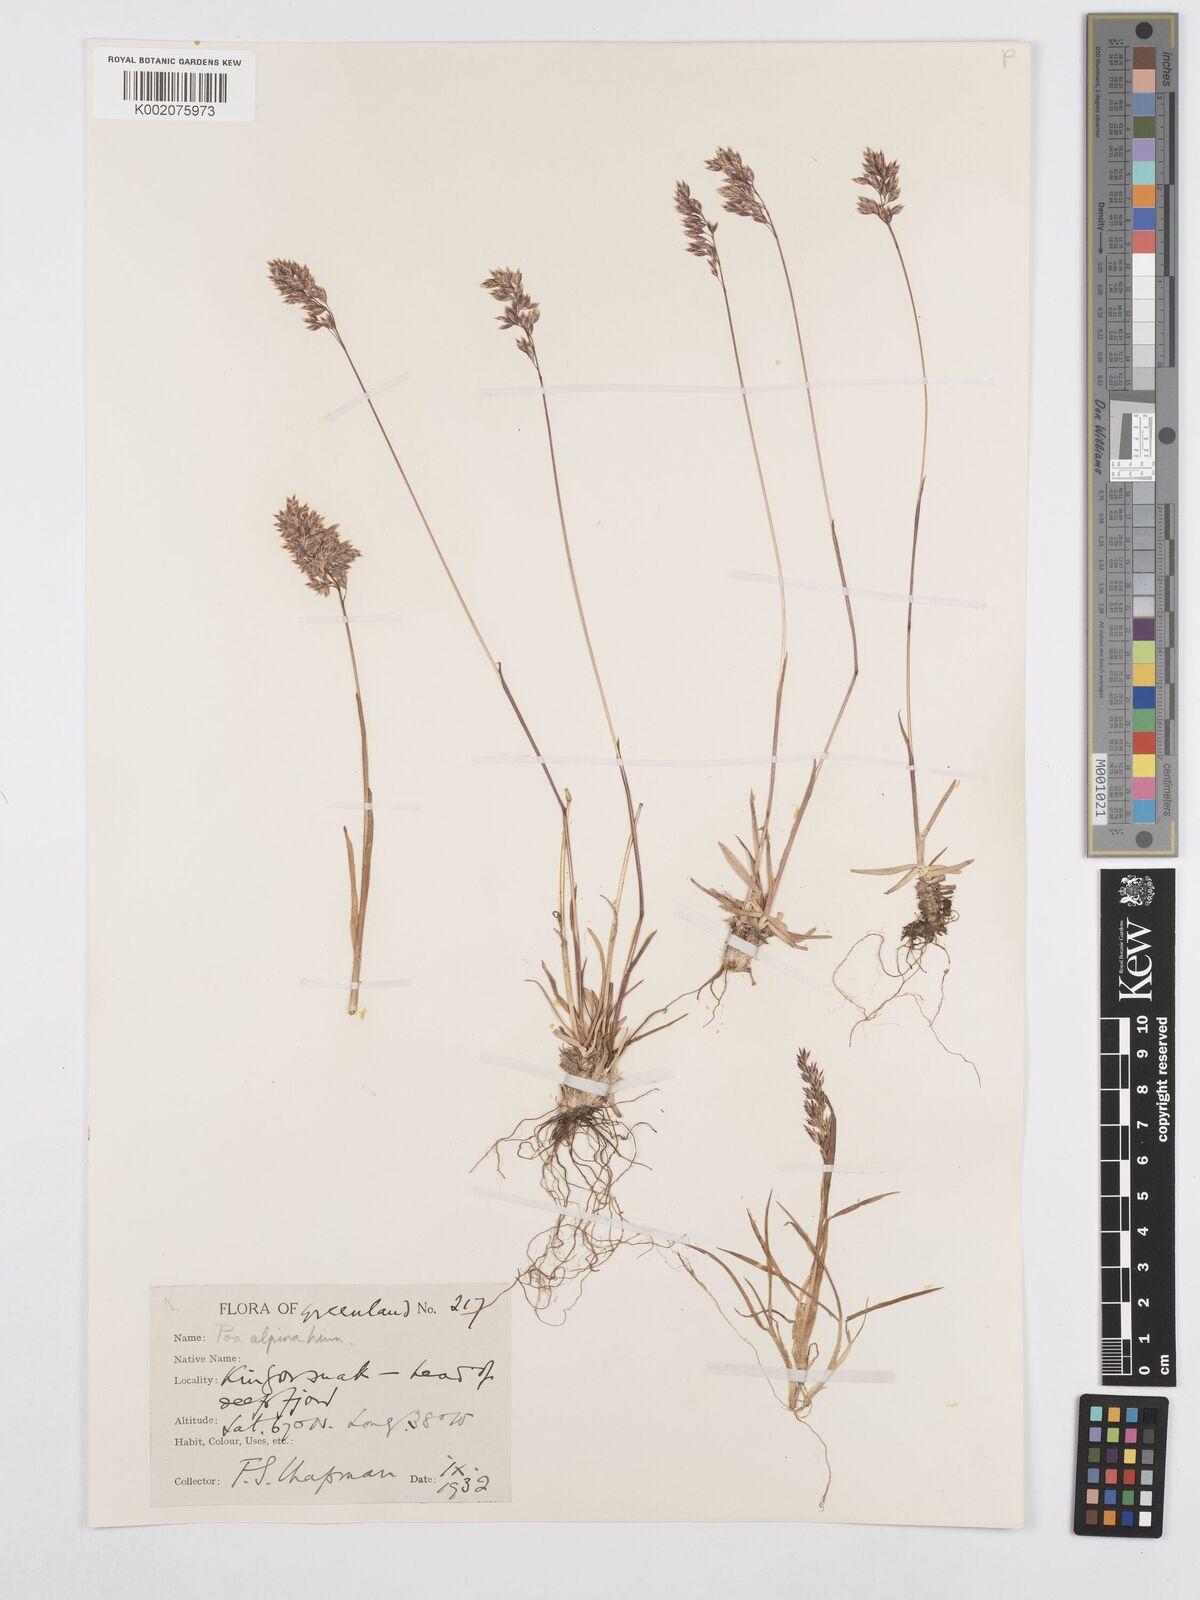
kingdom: Plantae
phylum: Tracheophyta
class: Liliopsida
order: Poales
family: Poaceae
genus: Poa
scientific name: Poa alpina
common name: Alpine bluegrass
